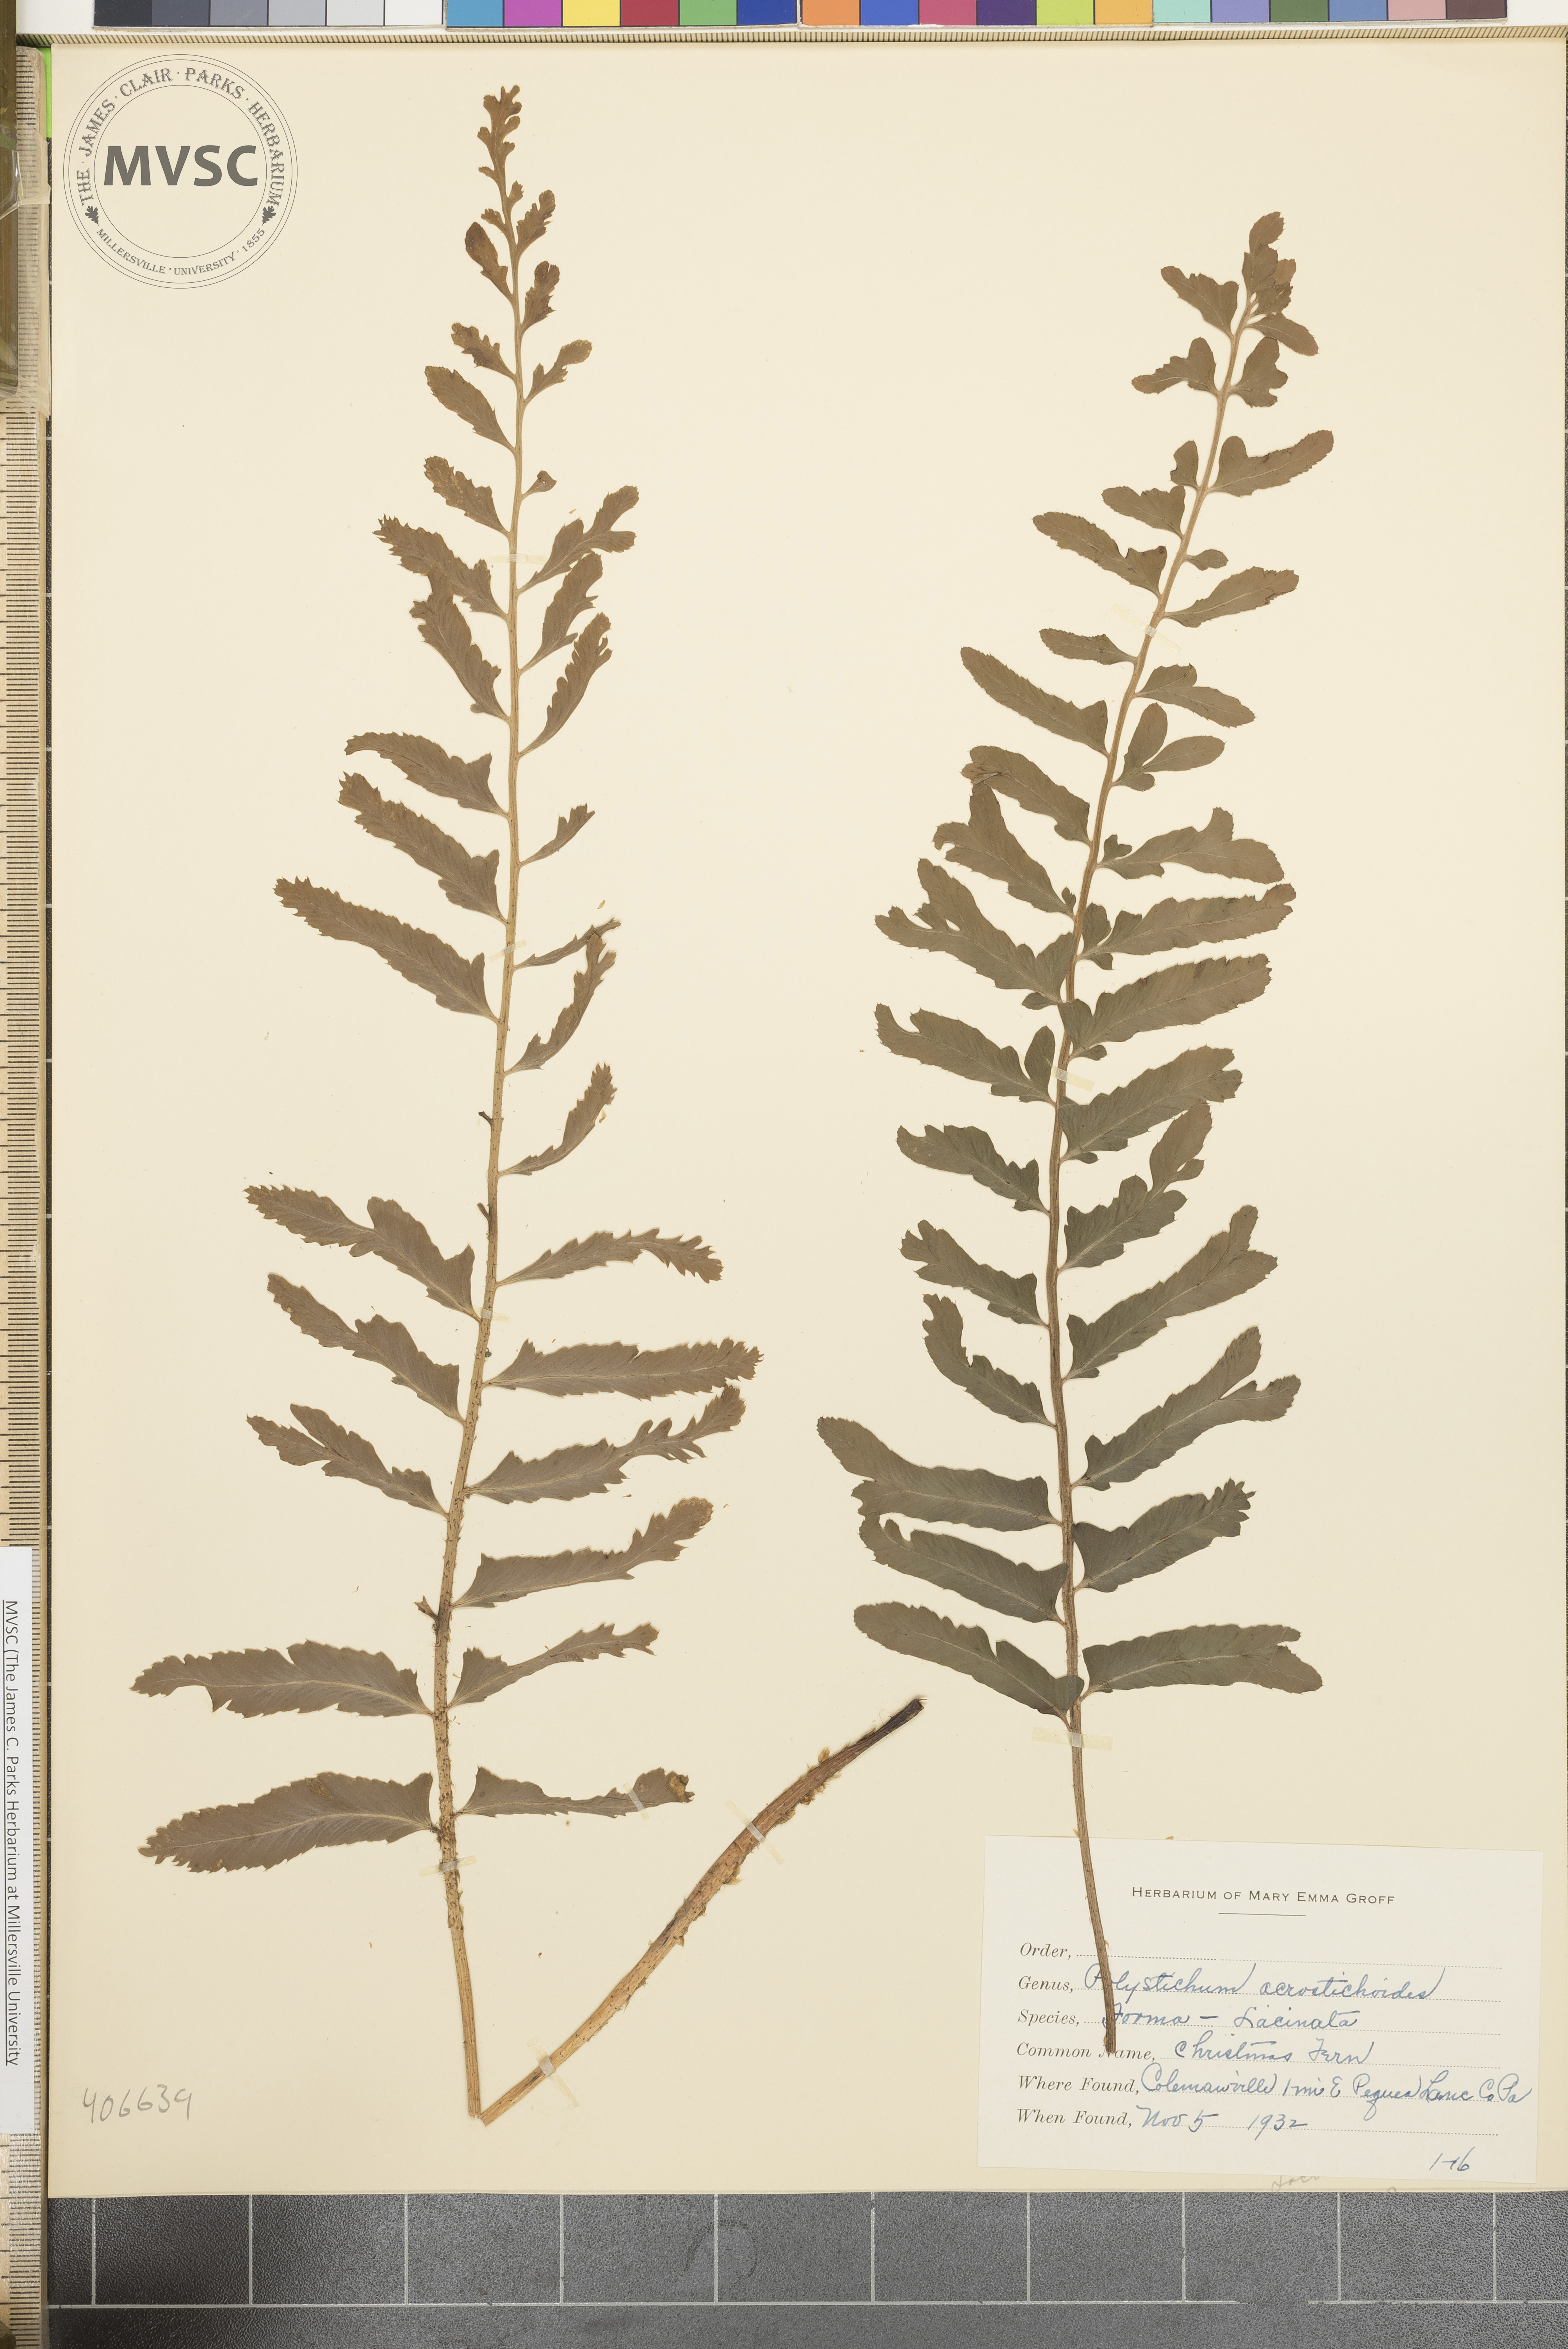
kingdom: Plantae
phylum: Tracheophyta
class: Polypodiopsida
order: Polypodiales
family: Dryopteridaceae
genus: Polystichum
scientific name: Polystichum acrostichoides
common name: Christmas fern
